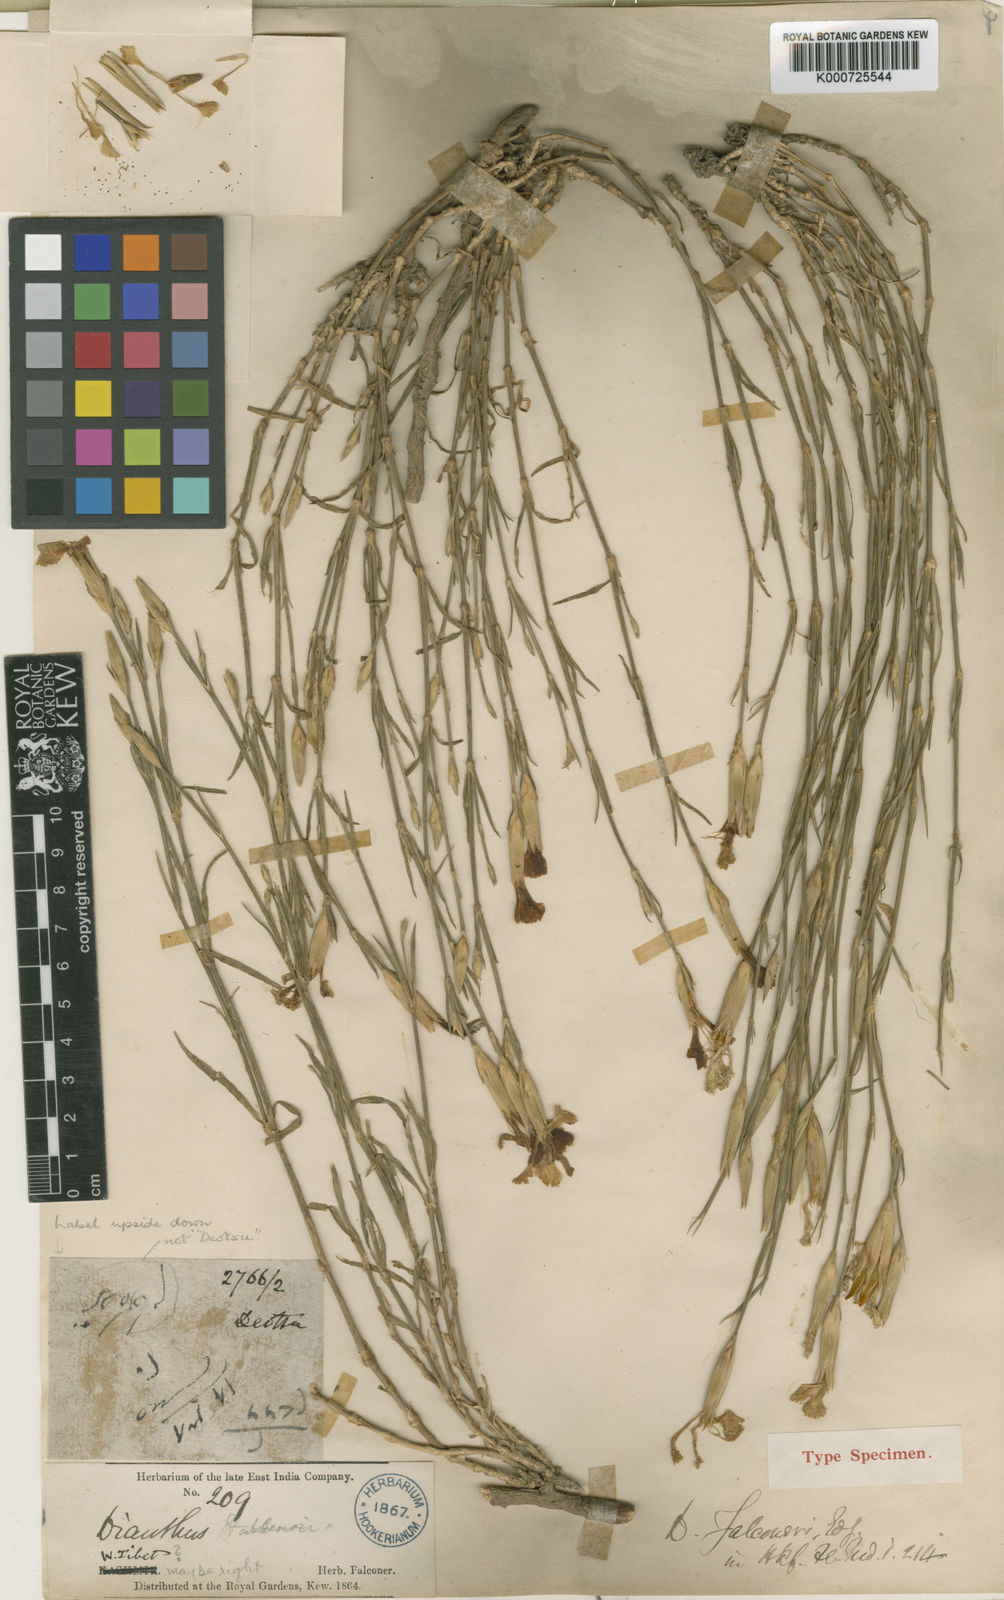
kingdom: Plantae
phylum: Tracheophyta
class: Magnoliopsida
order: Caryophyllales
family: Caryophyllaceae
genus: Dianthus
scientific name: Dianthus falconeri
